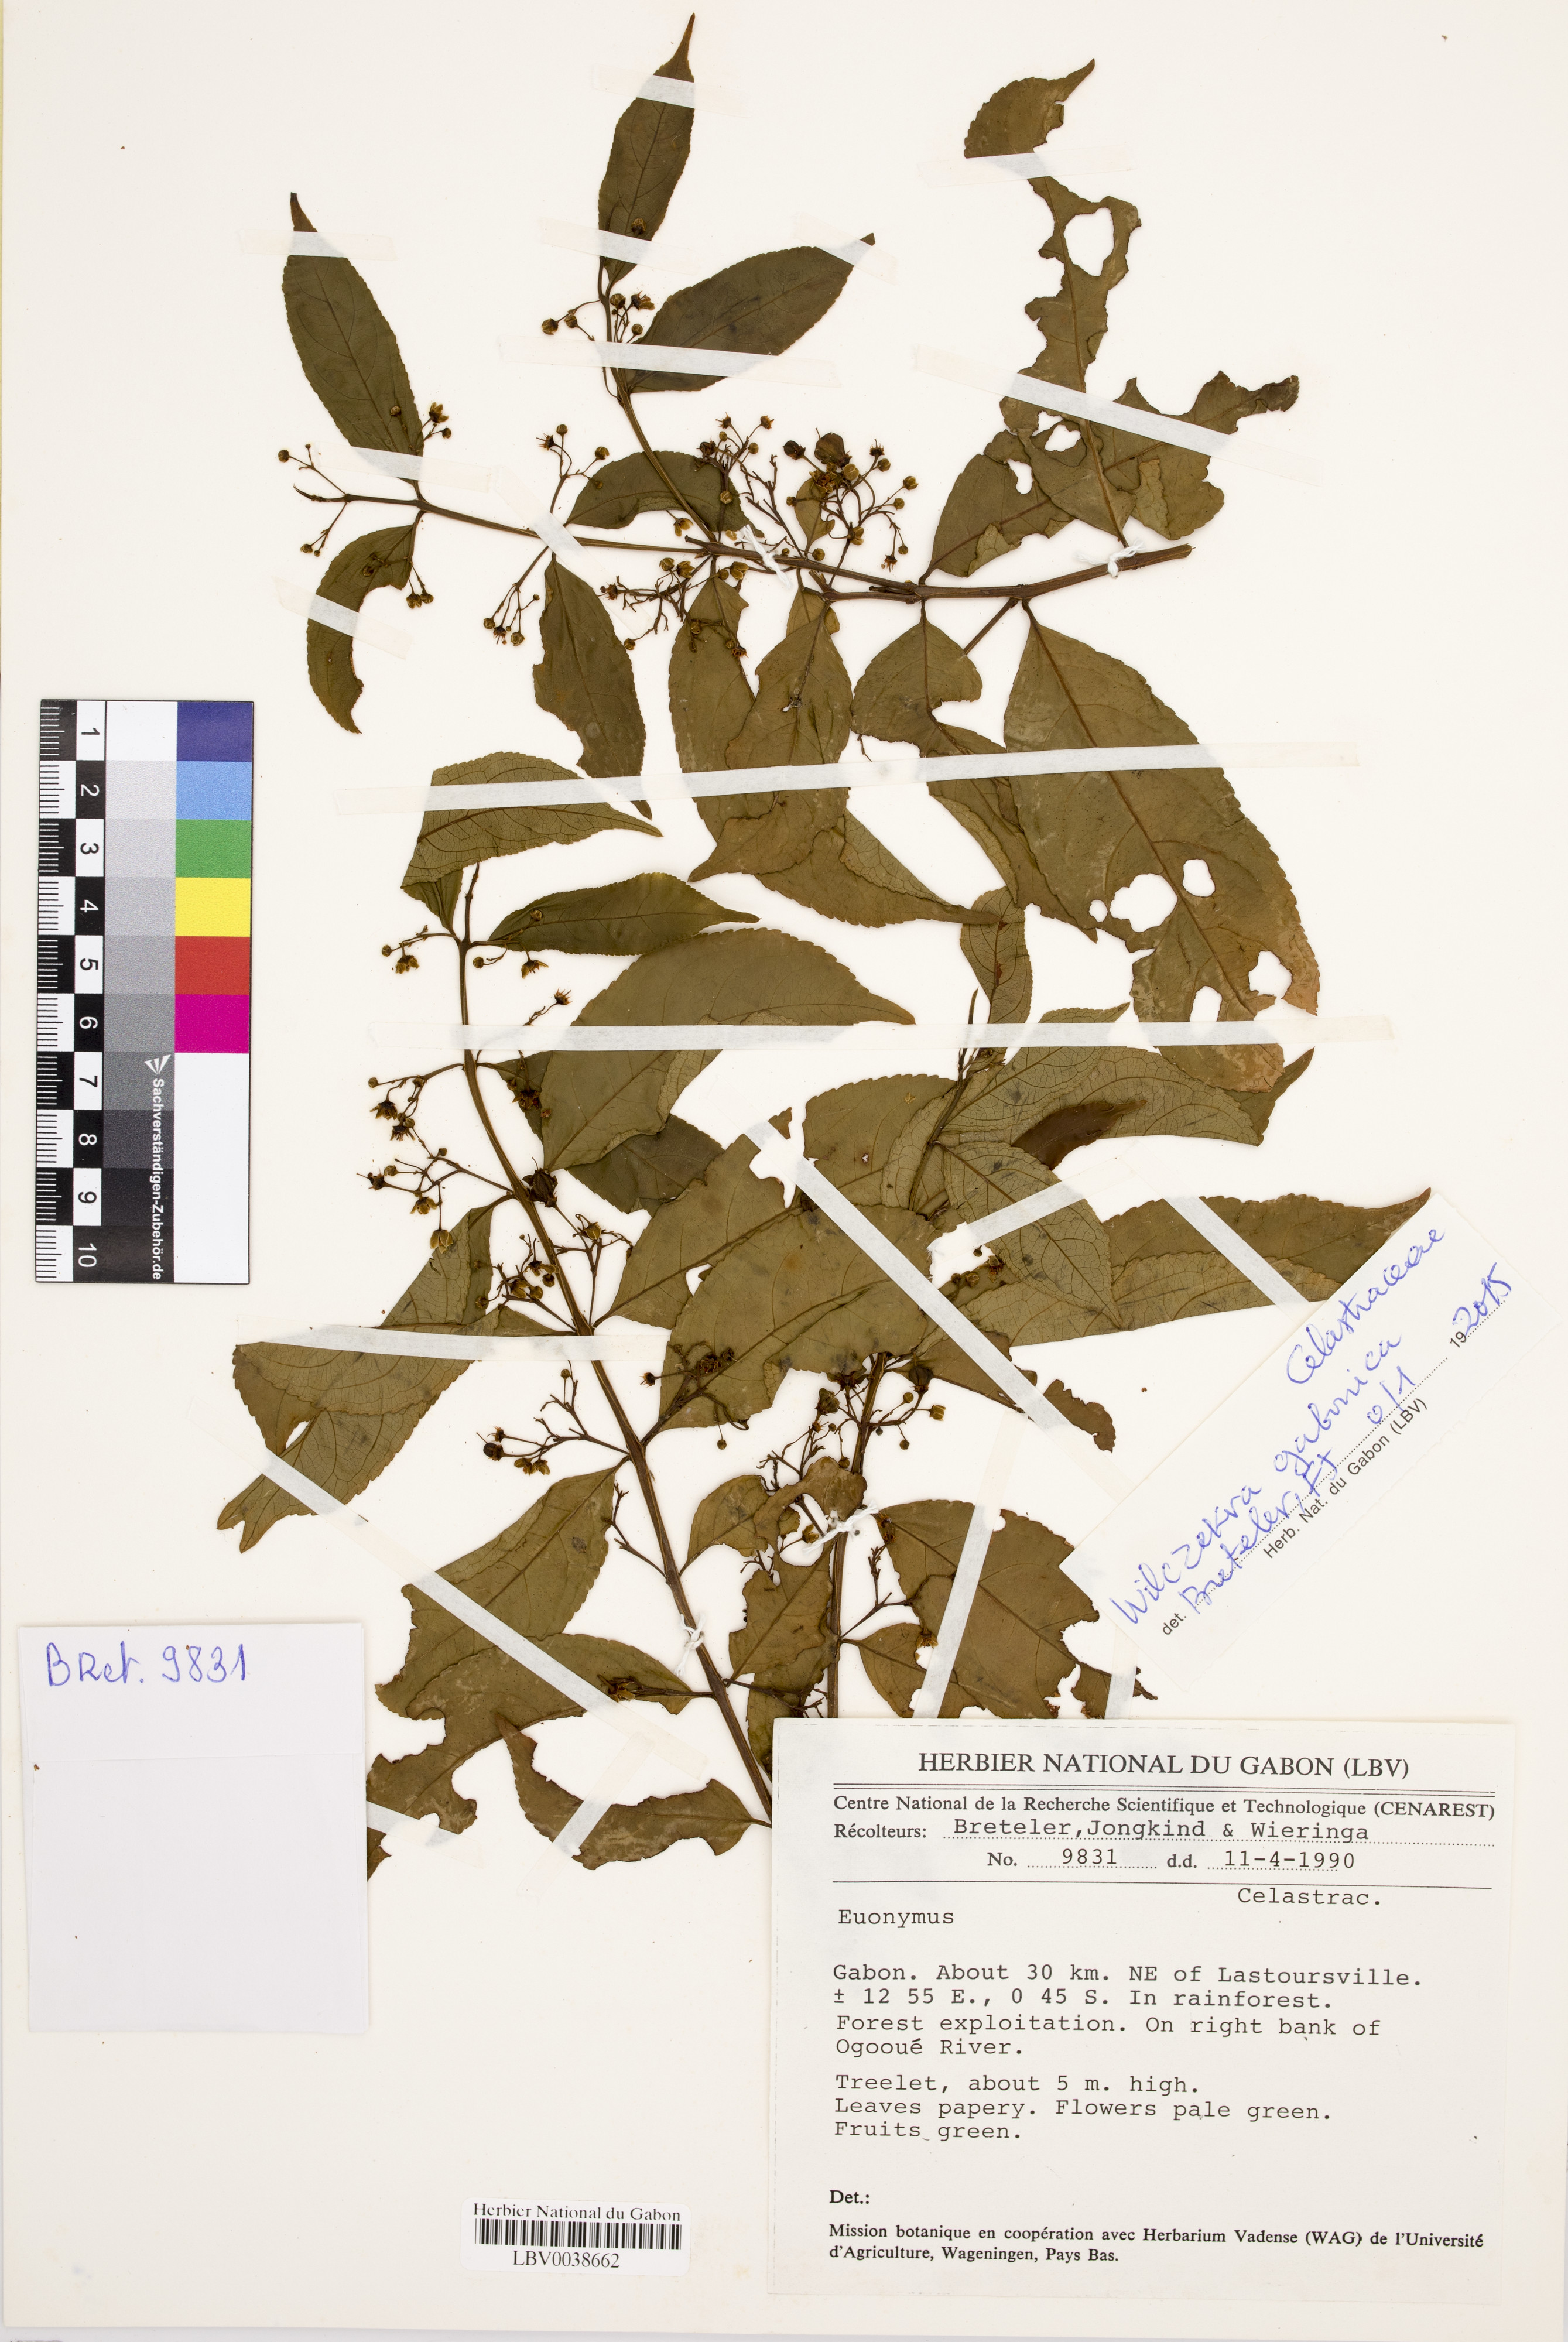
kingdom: Plantae
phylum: Tracheophyta
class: Magnoliopsida
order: Celastrales
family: Celastraceae
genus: Wilczekra
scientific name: Wilczekra gabonica
